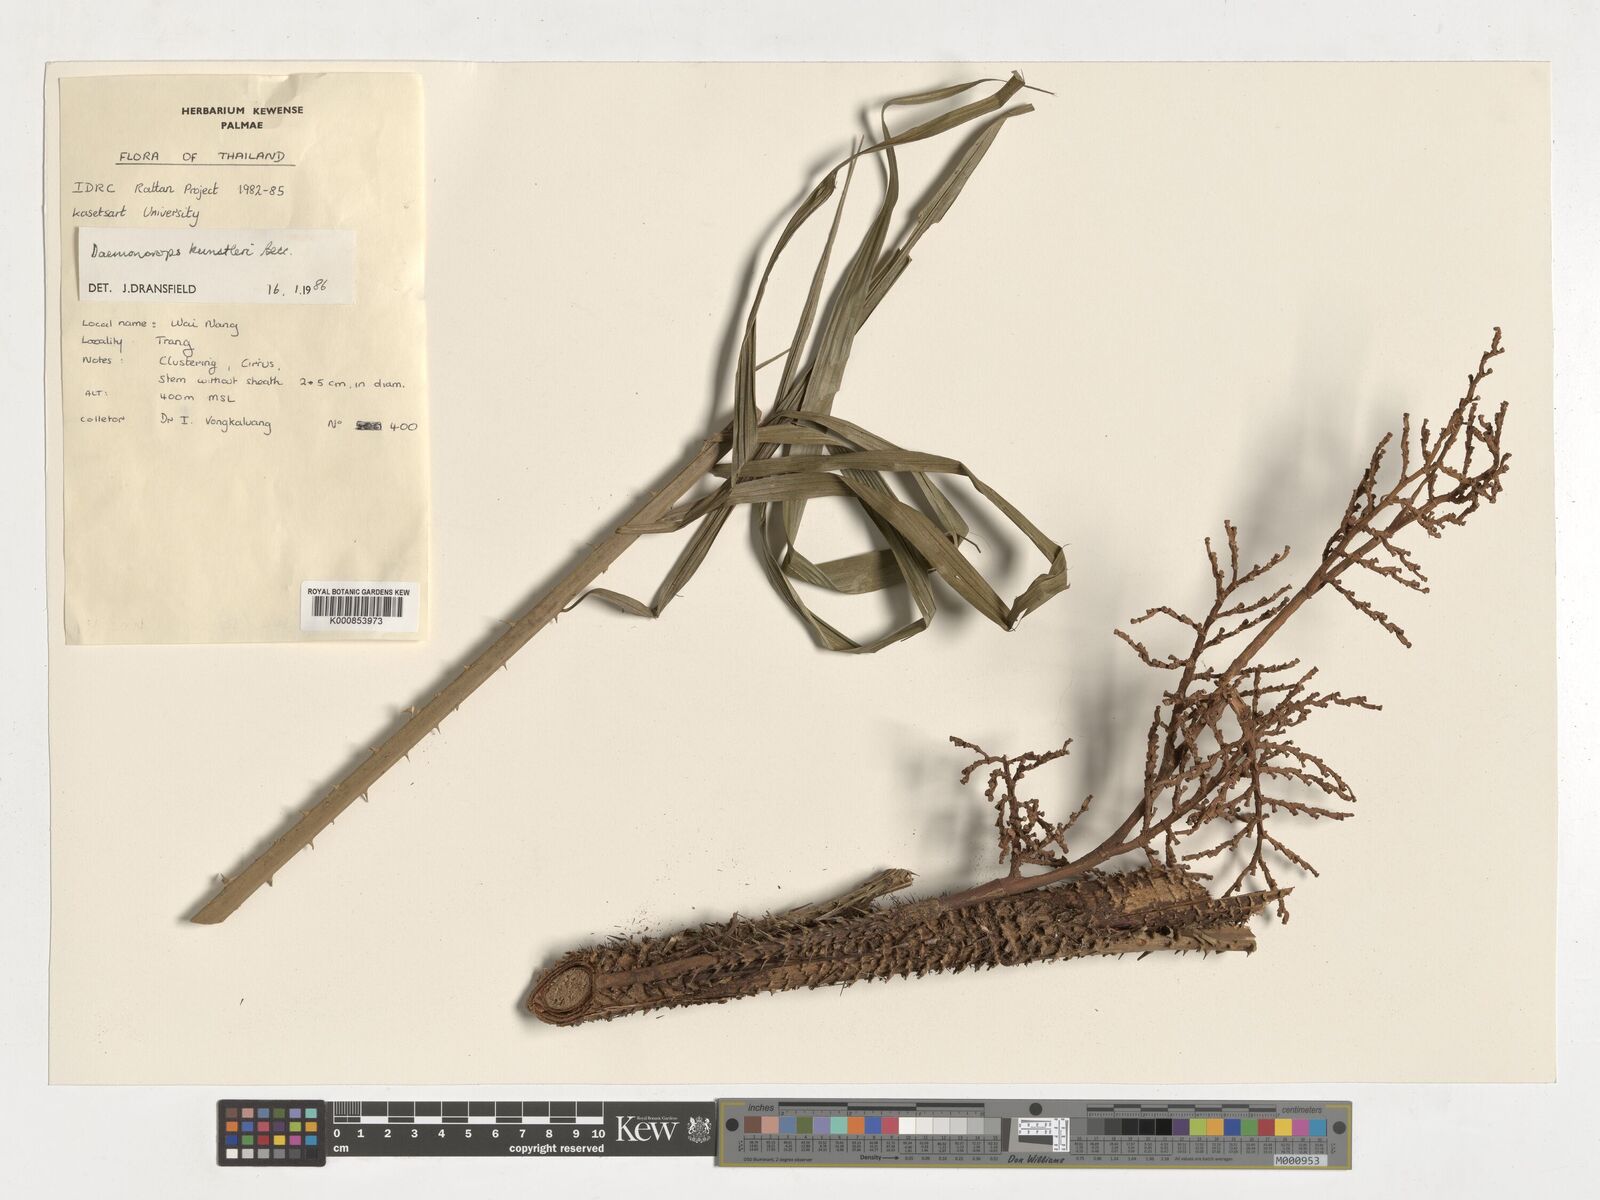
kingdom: Plantae
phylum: Tracheophyta
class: Liliopsida
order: Arecales
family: Arecaceae
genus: Calamus
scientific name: Calamus kunstleri
